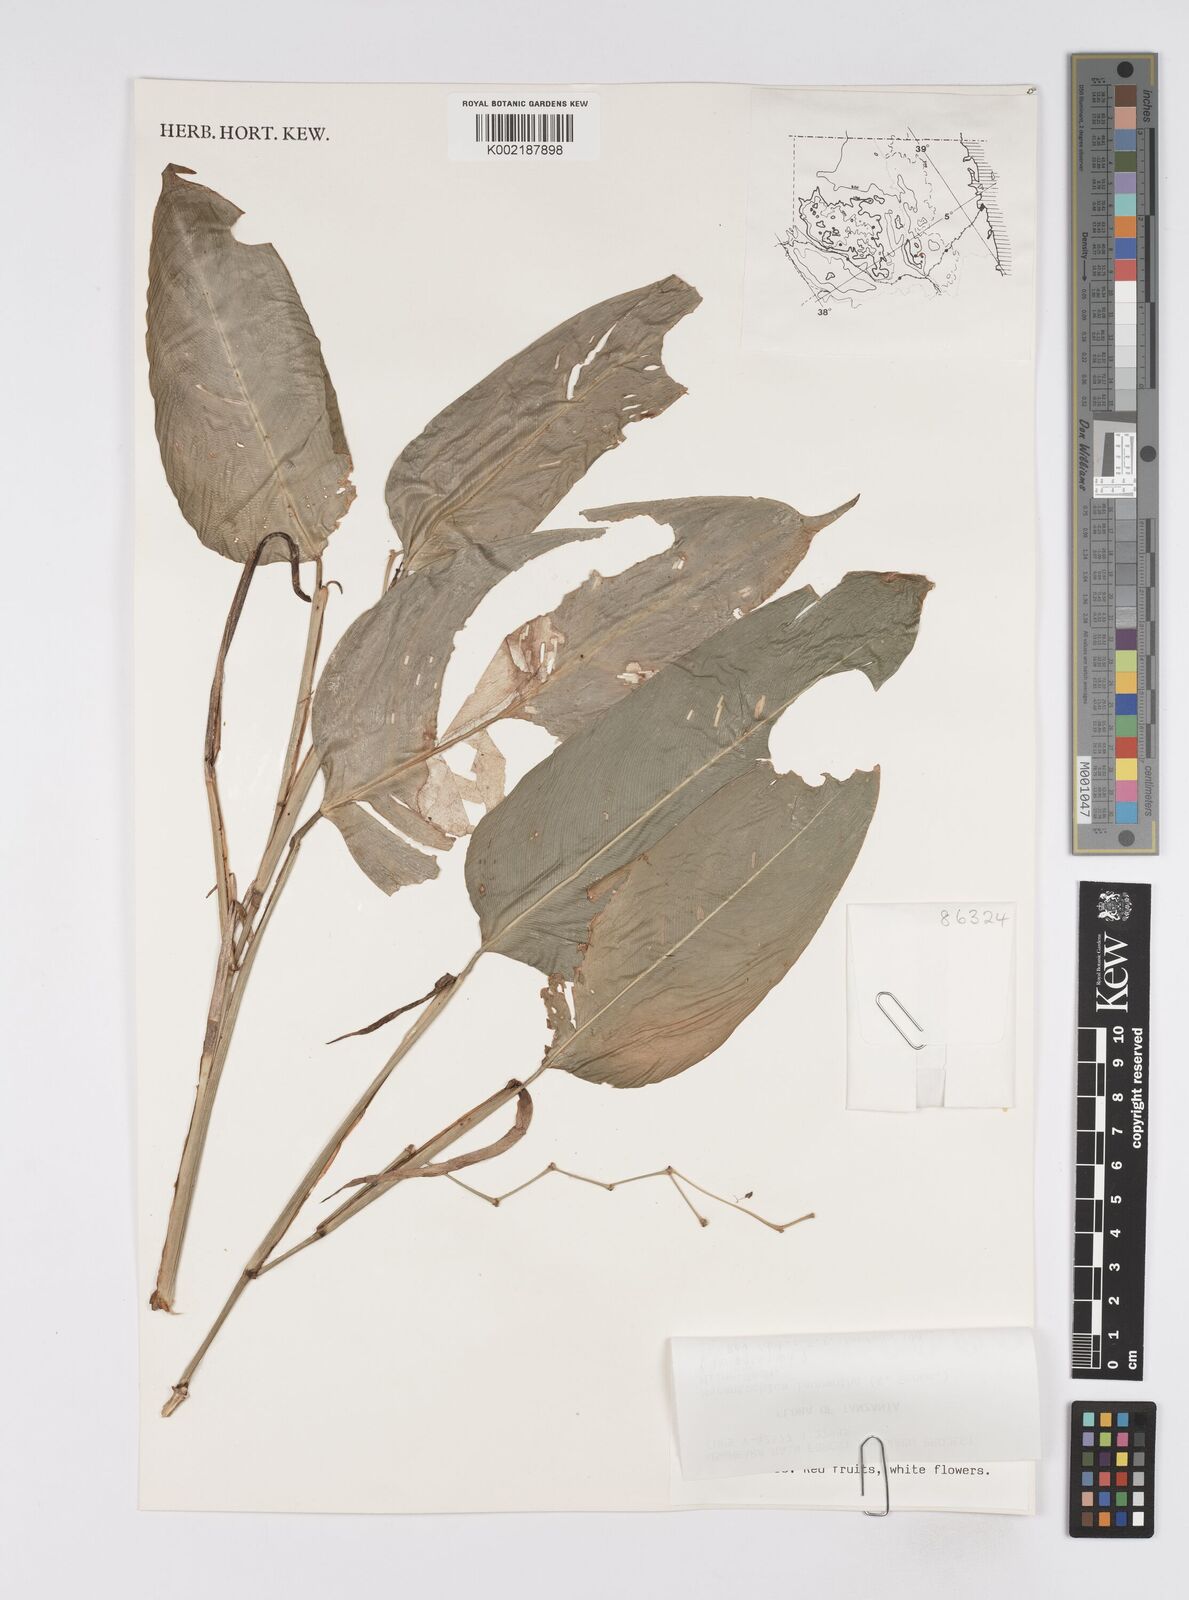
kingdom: Plantae
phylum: Tracheophyta
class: Liliopsida
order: Zingiberales
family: Marantaceae
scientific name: Marantaceae
